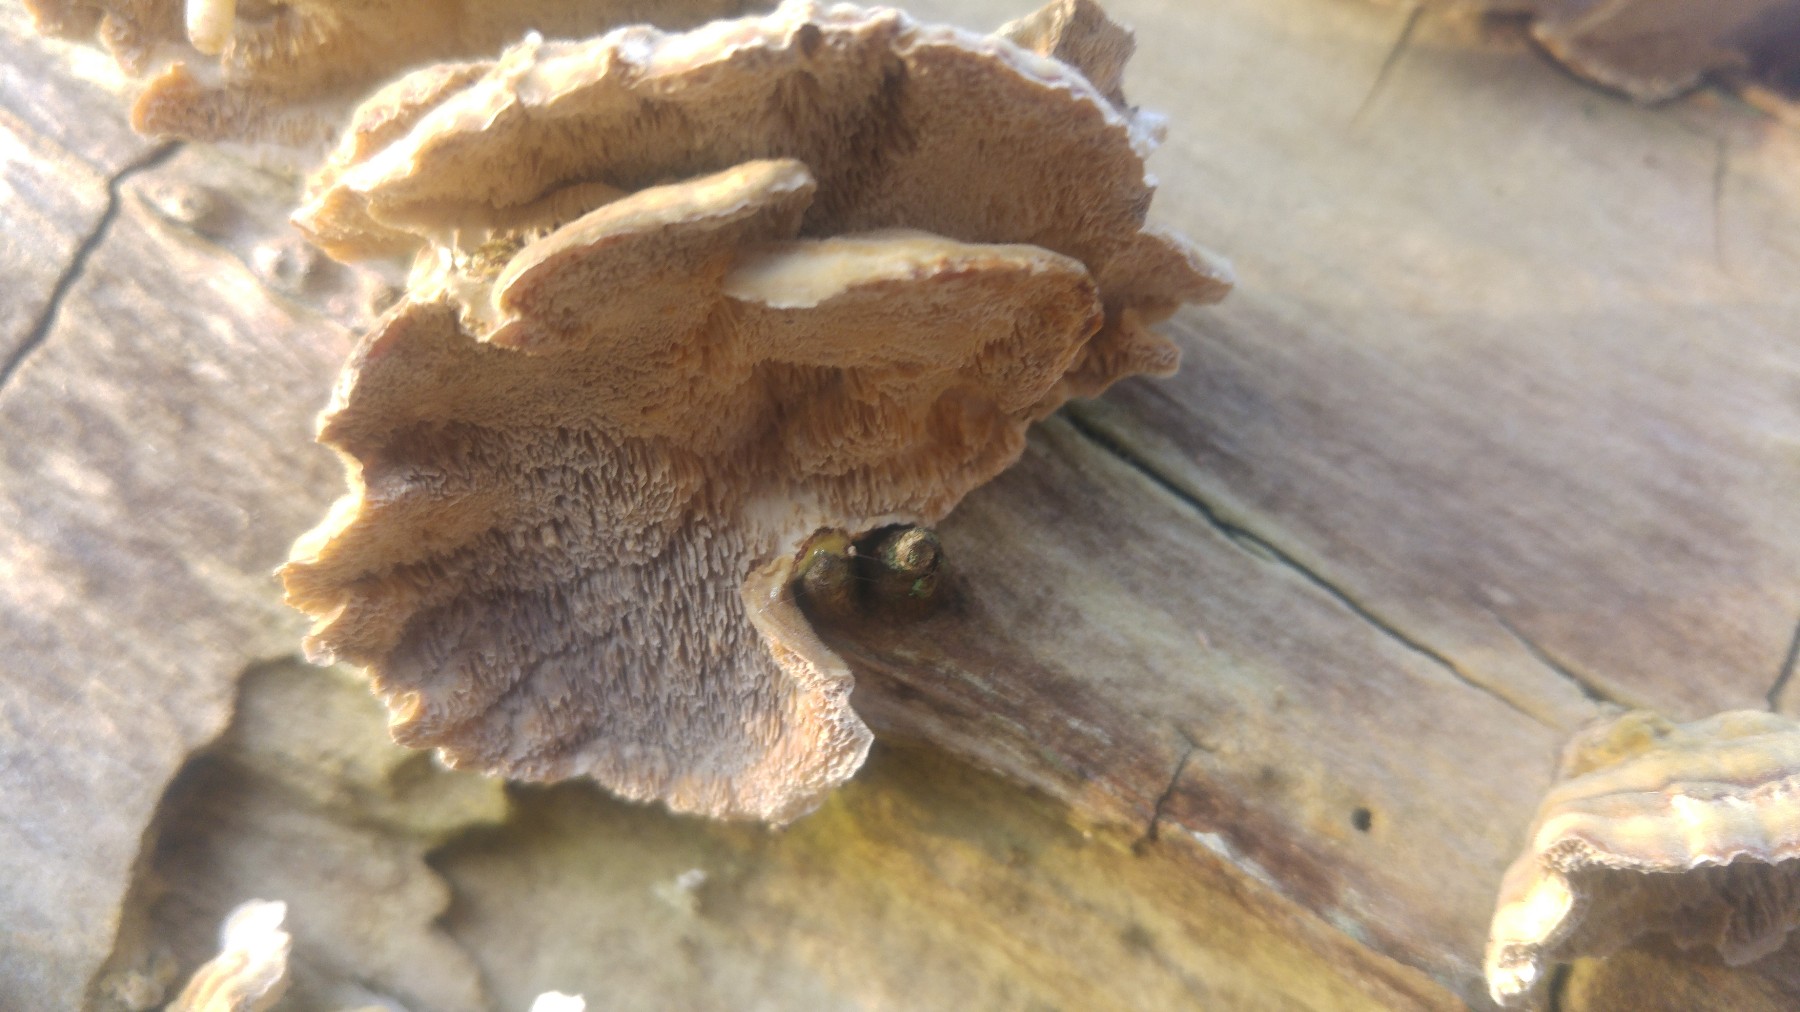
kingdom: Fungi
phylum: Basidiomycota
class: Agaricomycetes
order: Polyporales
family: Polyporaceae
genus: Trametes
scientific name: Trametes
